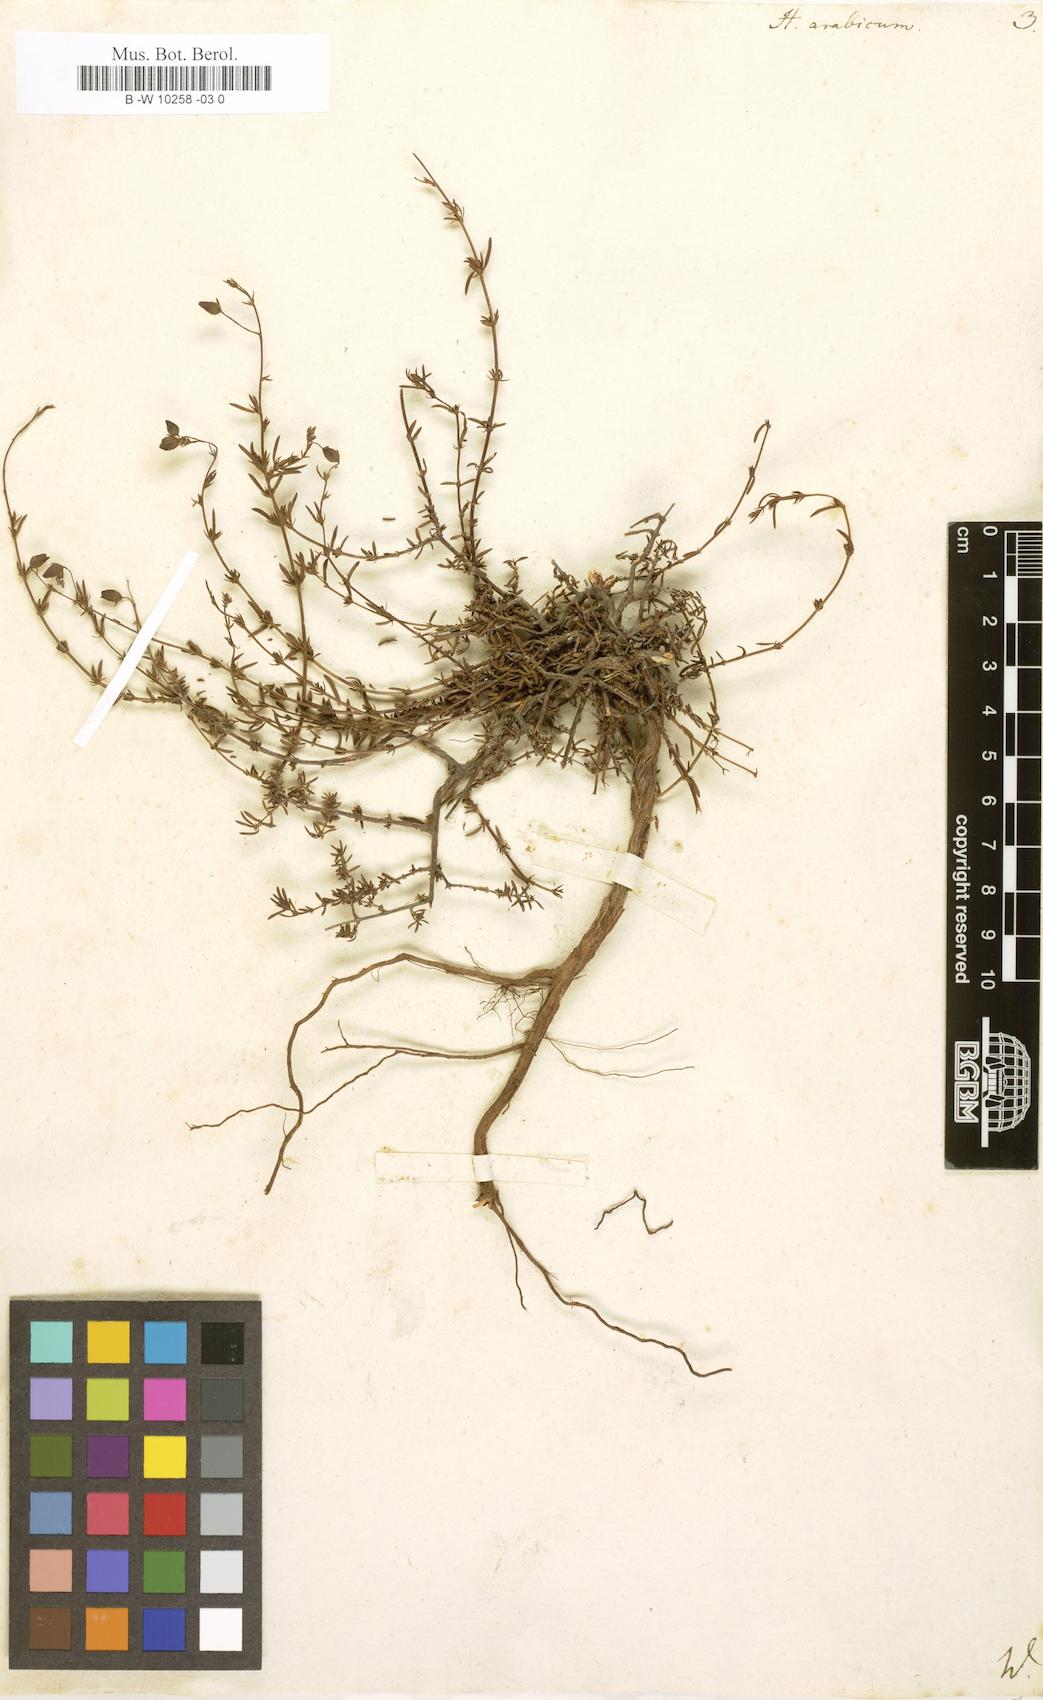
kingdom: Plantae
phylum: Tracheophyta
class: Magnoliopsida
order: Malvales
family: Cistaceae
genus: Fumana
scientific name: Fumana arabica
